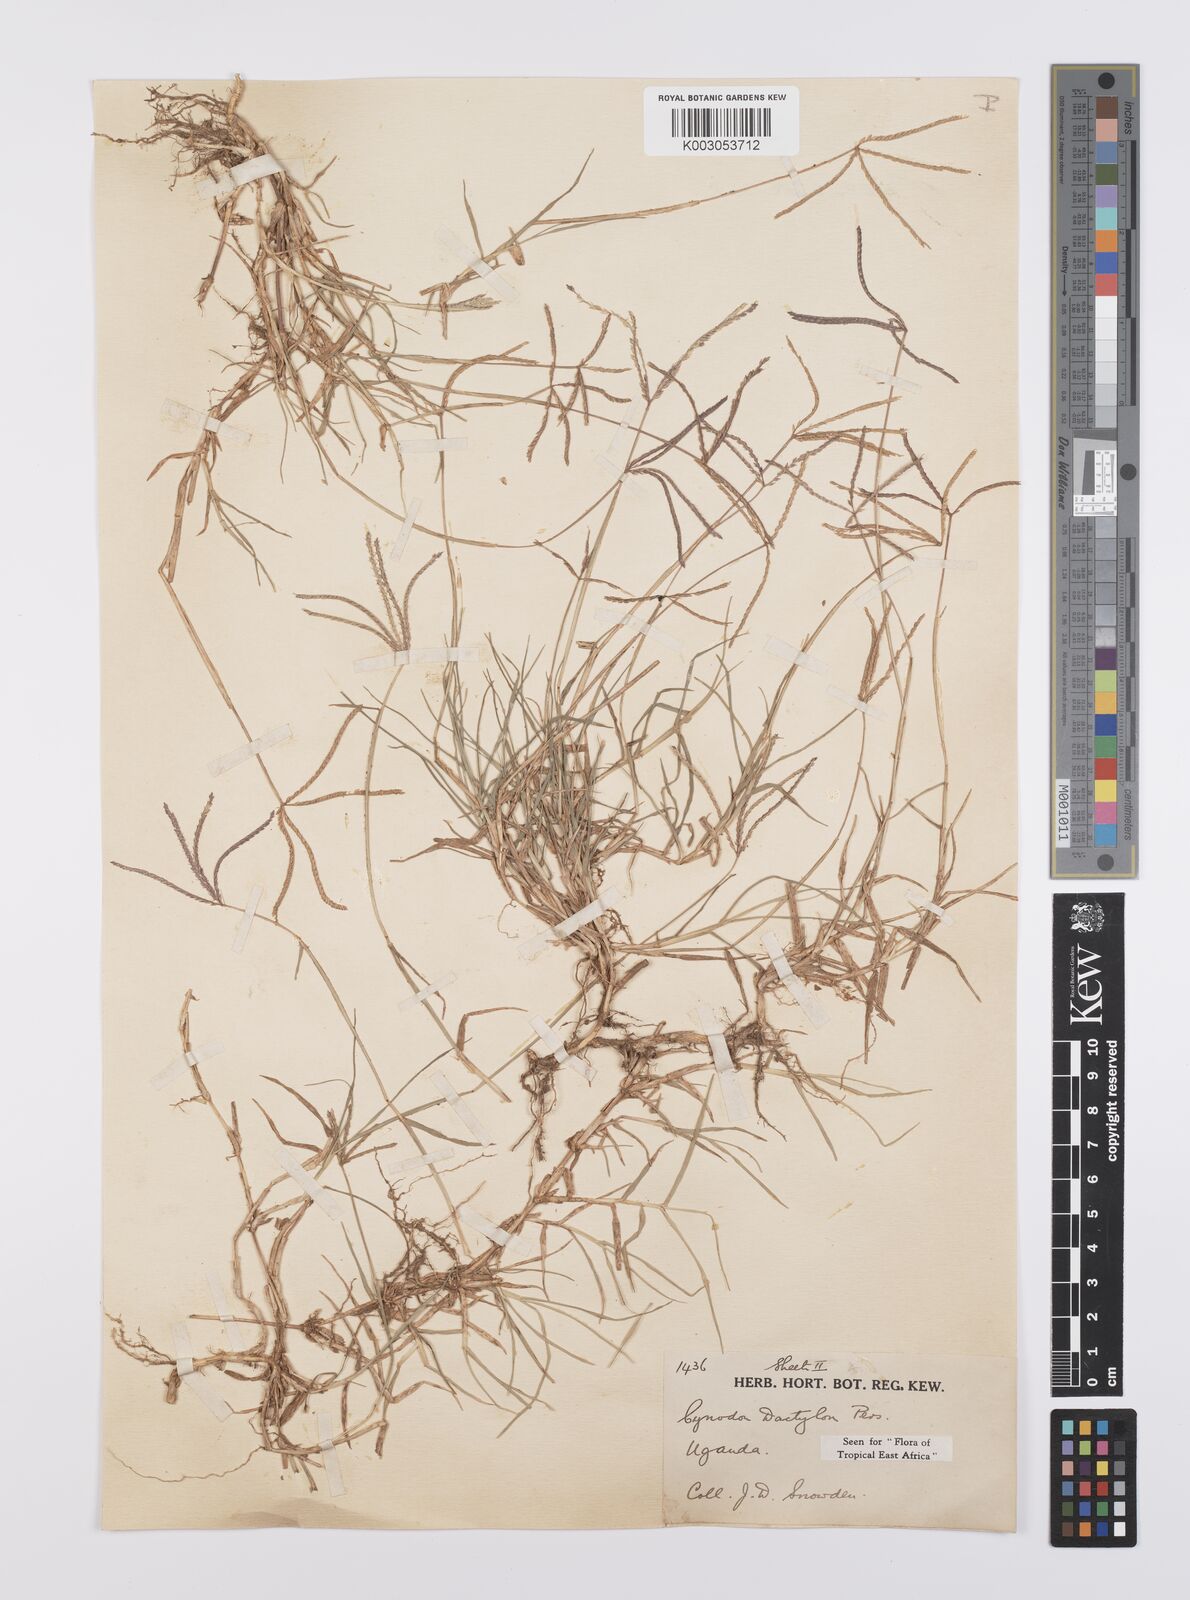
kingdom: Plantae
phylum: Tracheophyta
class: Liliopsida
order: Poales
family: Poaceae
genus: Cynodon
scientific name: Cynodon dactylon
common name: Bermuda grass
